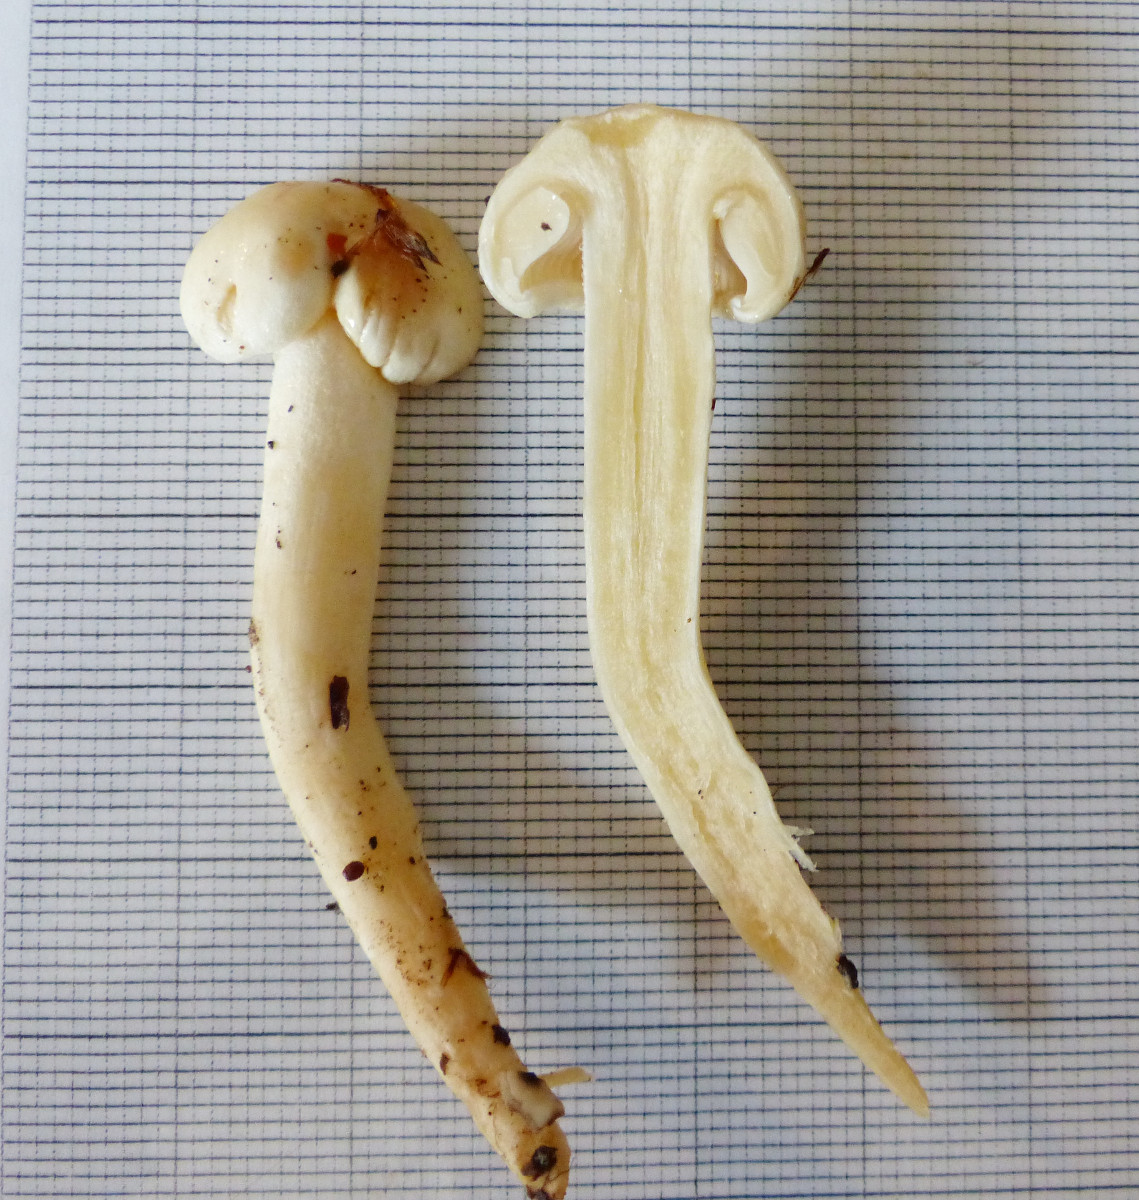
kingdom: Fungi
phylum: Basidiomycota
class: Agaricomycetes
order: Agaricales
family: Hygrophoraceae
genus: Hygrophorus
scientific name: Hygrophorus
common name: sneglehat
